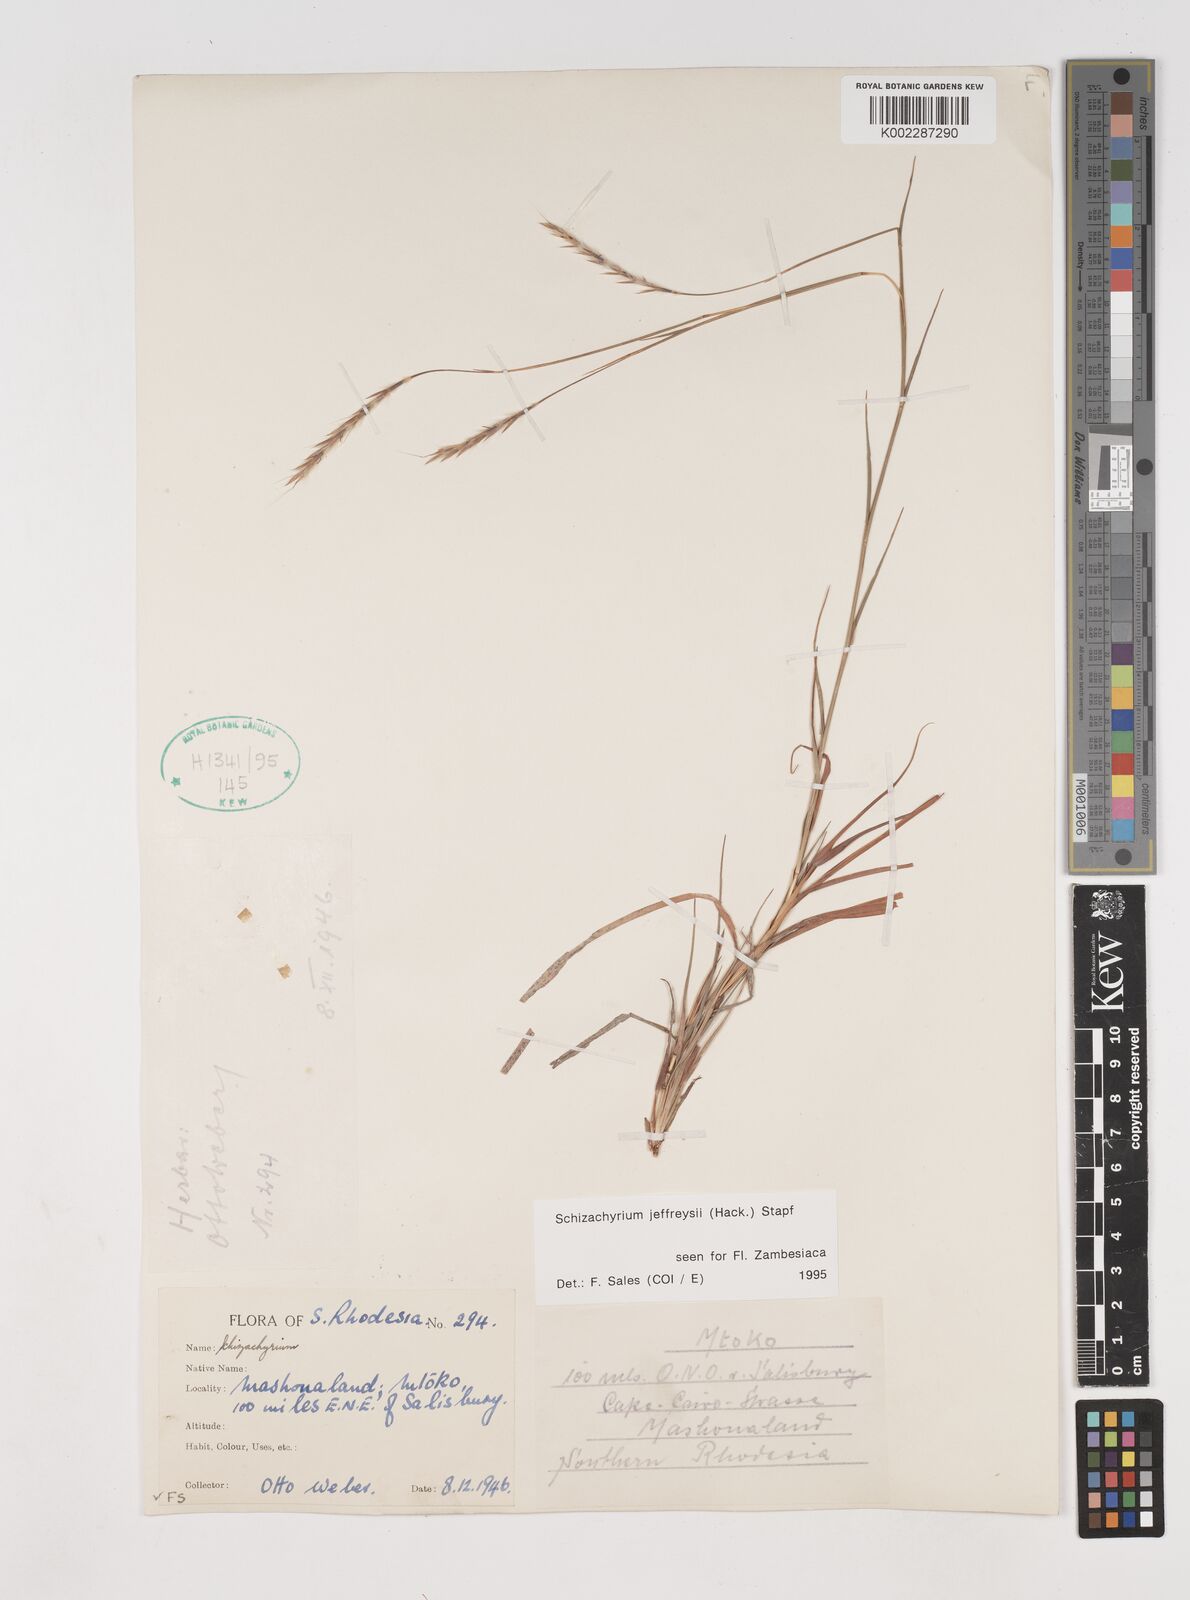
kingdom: Plantae
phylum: Tracheophyta
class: Liliopsida
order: Poales
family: Poaceae
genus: Schizachyrium
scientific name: Schizachyrium jeffreysii
